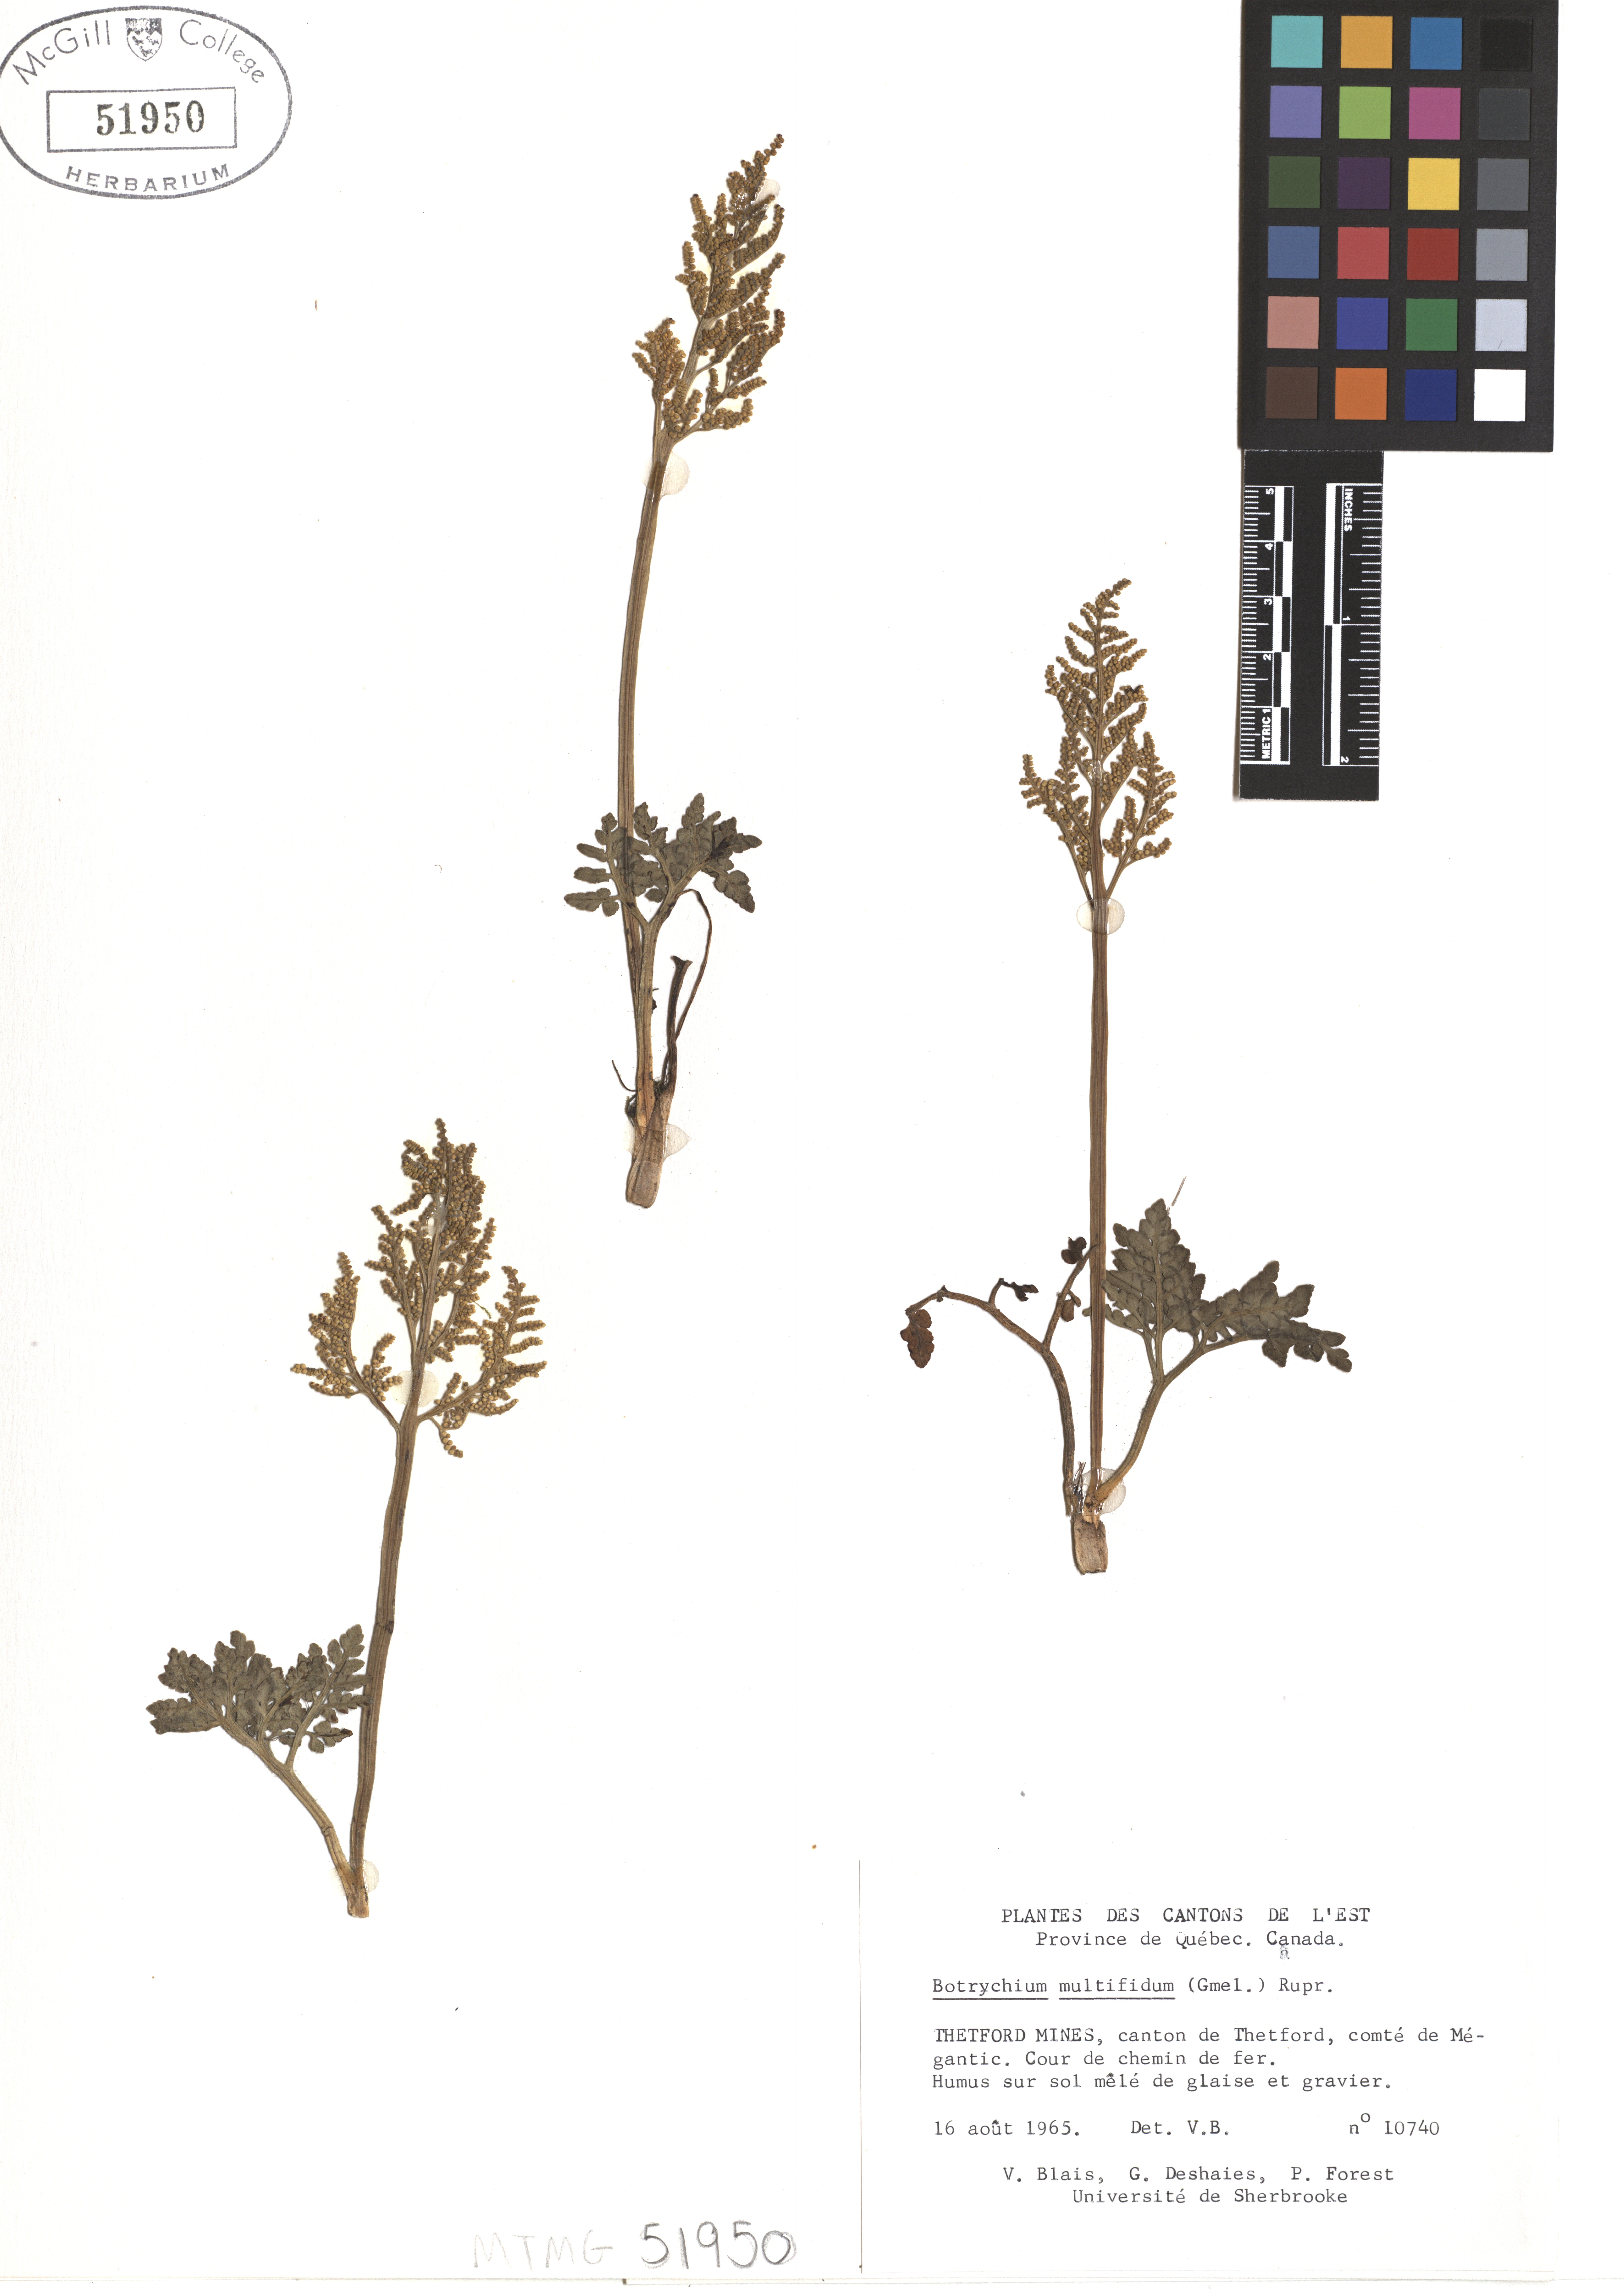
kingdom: Plantae
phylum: Tracheophyta
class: Polypodiopsida
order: Ophioglossales
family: Ophioglossaceae
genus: Sceptridium
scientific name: Sceptridium multifidum
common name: Leathery grape fern
